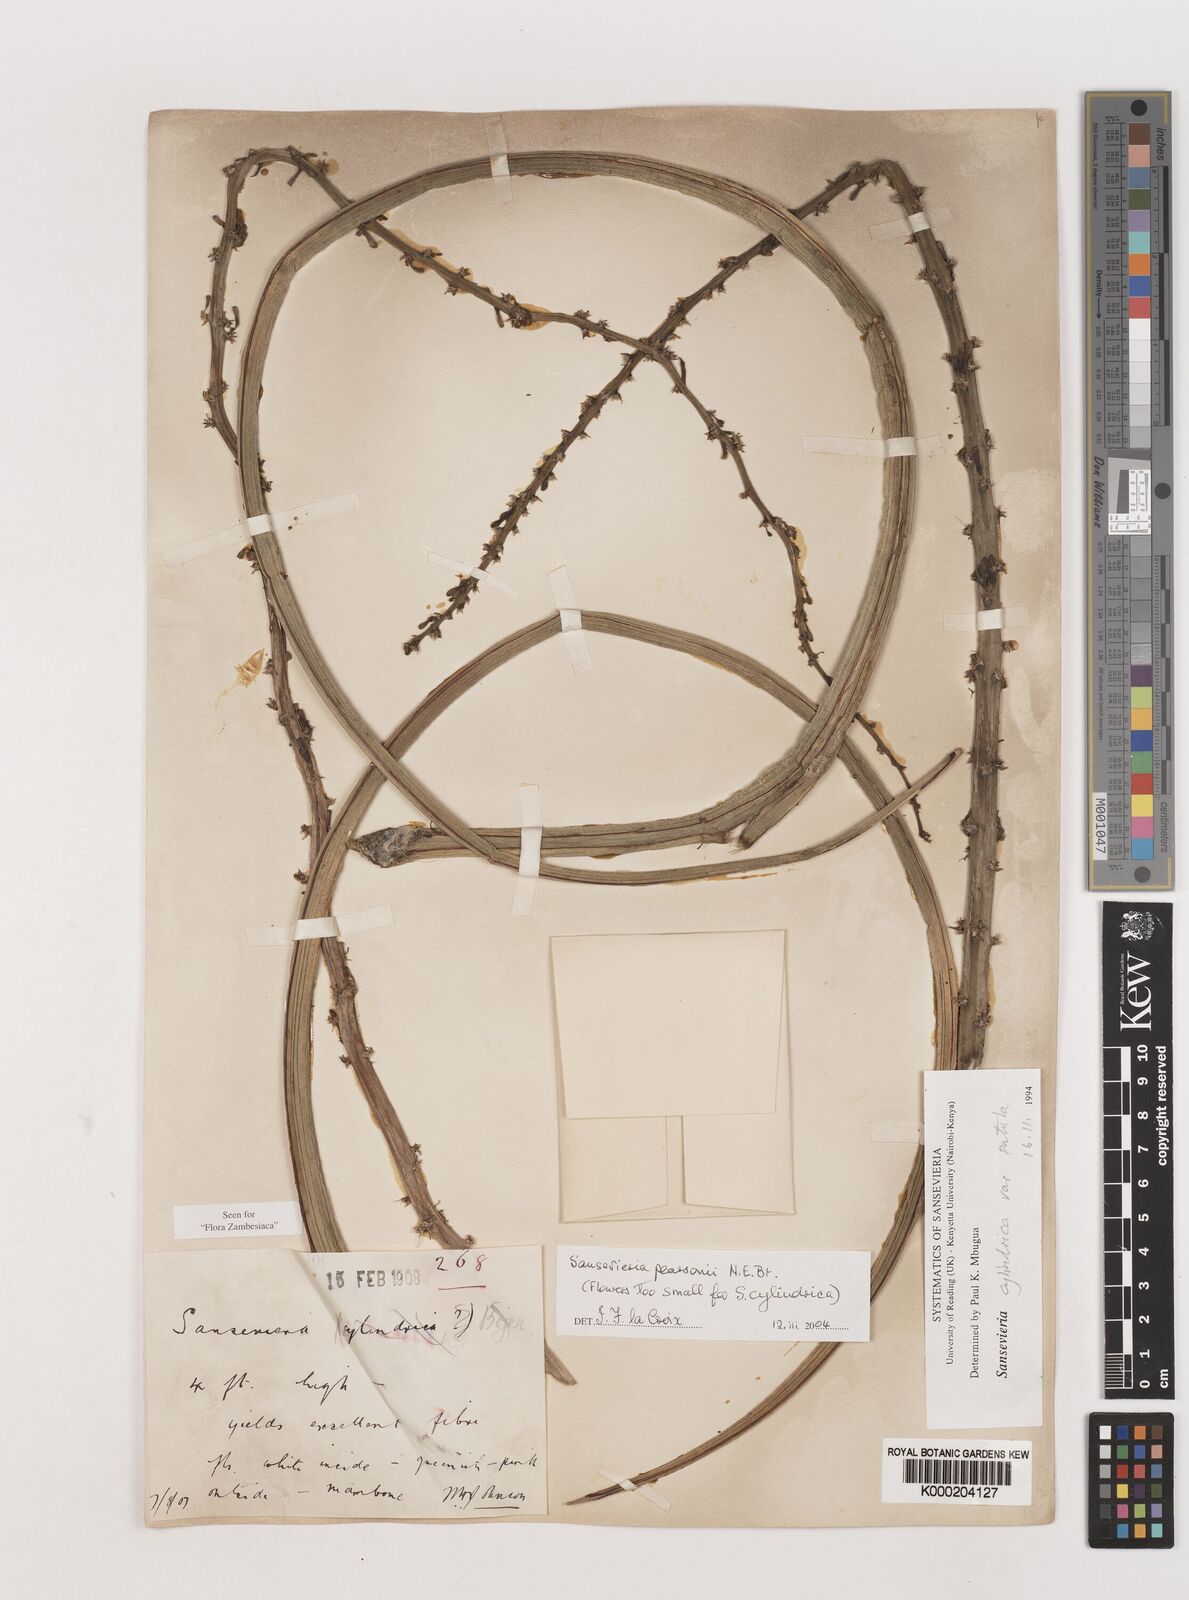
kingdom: Plantae
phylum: Tracheophyta
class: Liliopsida
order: Asparagales
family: Asparagaceae
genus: Dracaena
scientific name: Dracaena pearsonii
